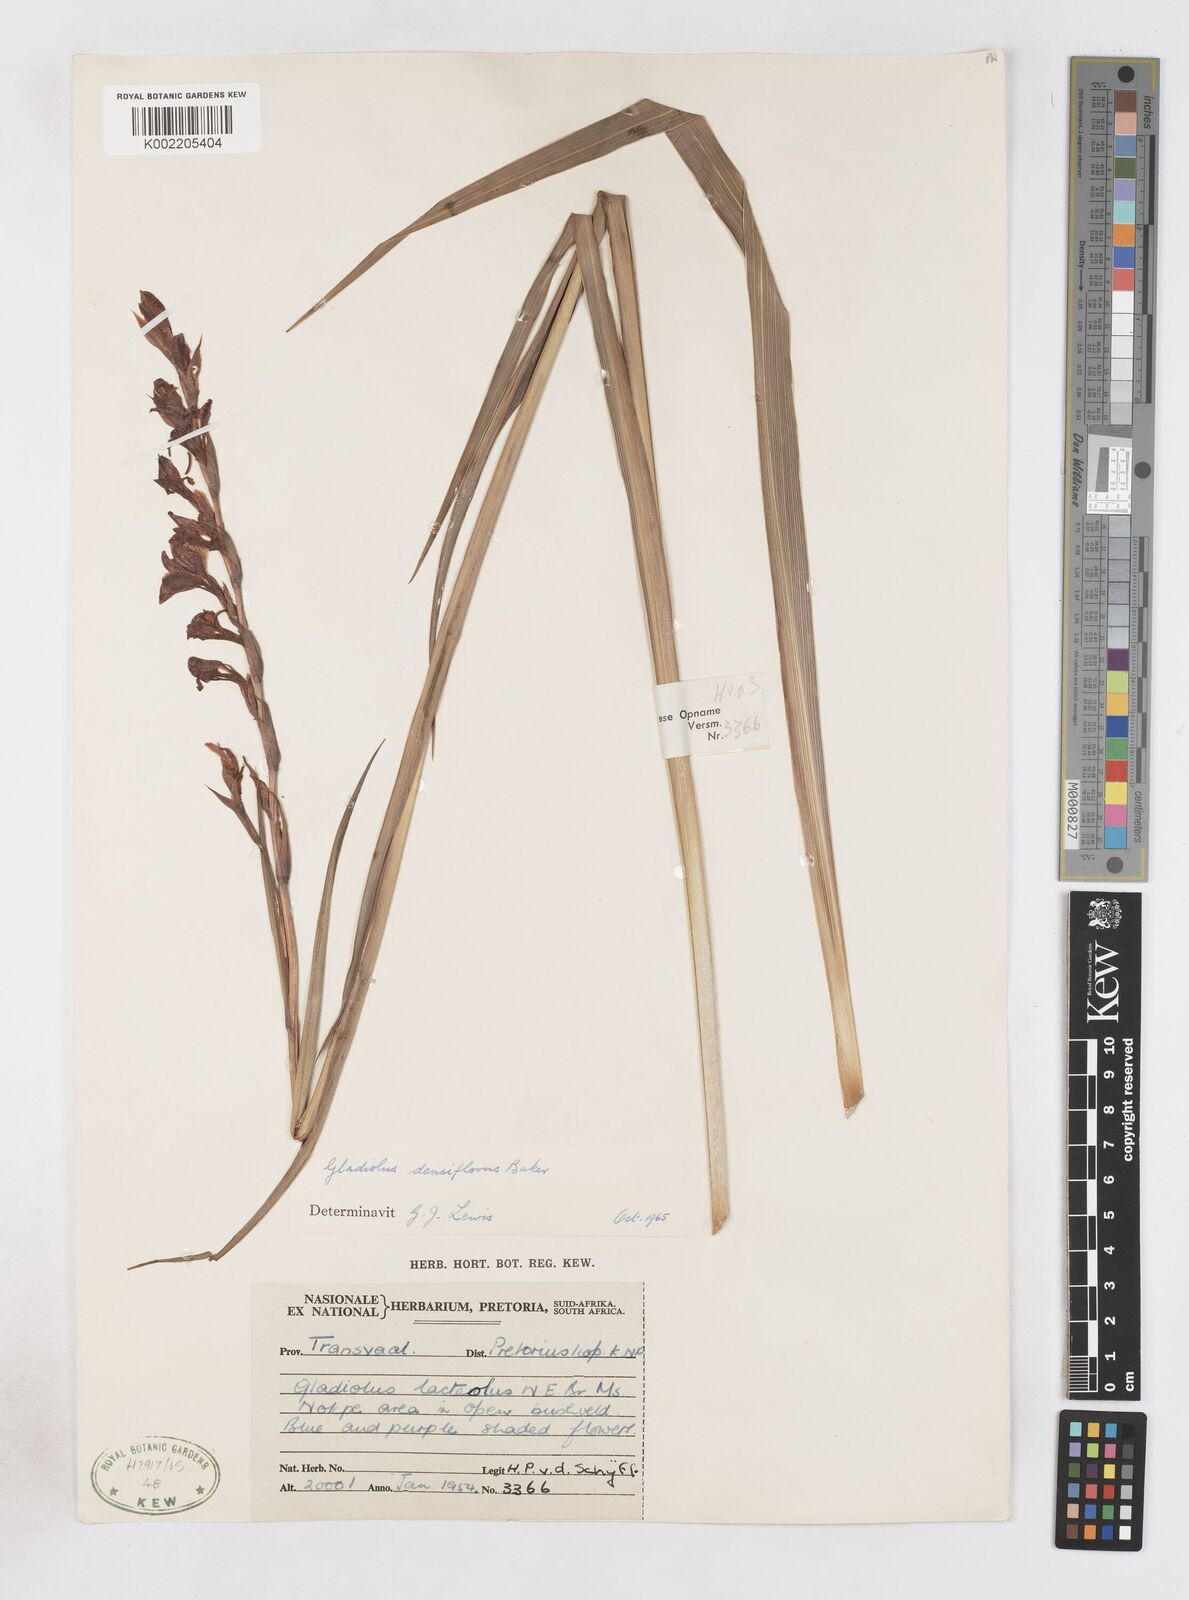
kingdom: Plantae
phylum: Tracheophyta
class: Liliopsida
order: Asparagales
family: Iridaceae
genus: Gladiolus
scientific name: Gladiolus densiflorus
